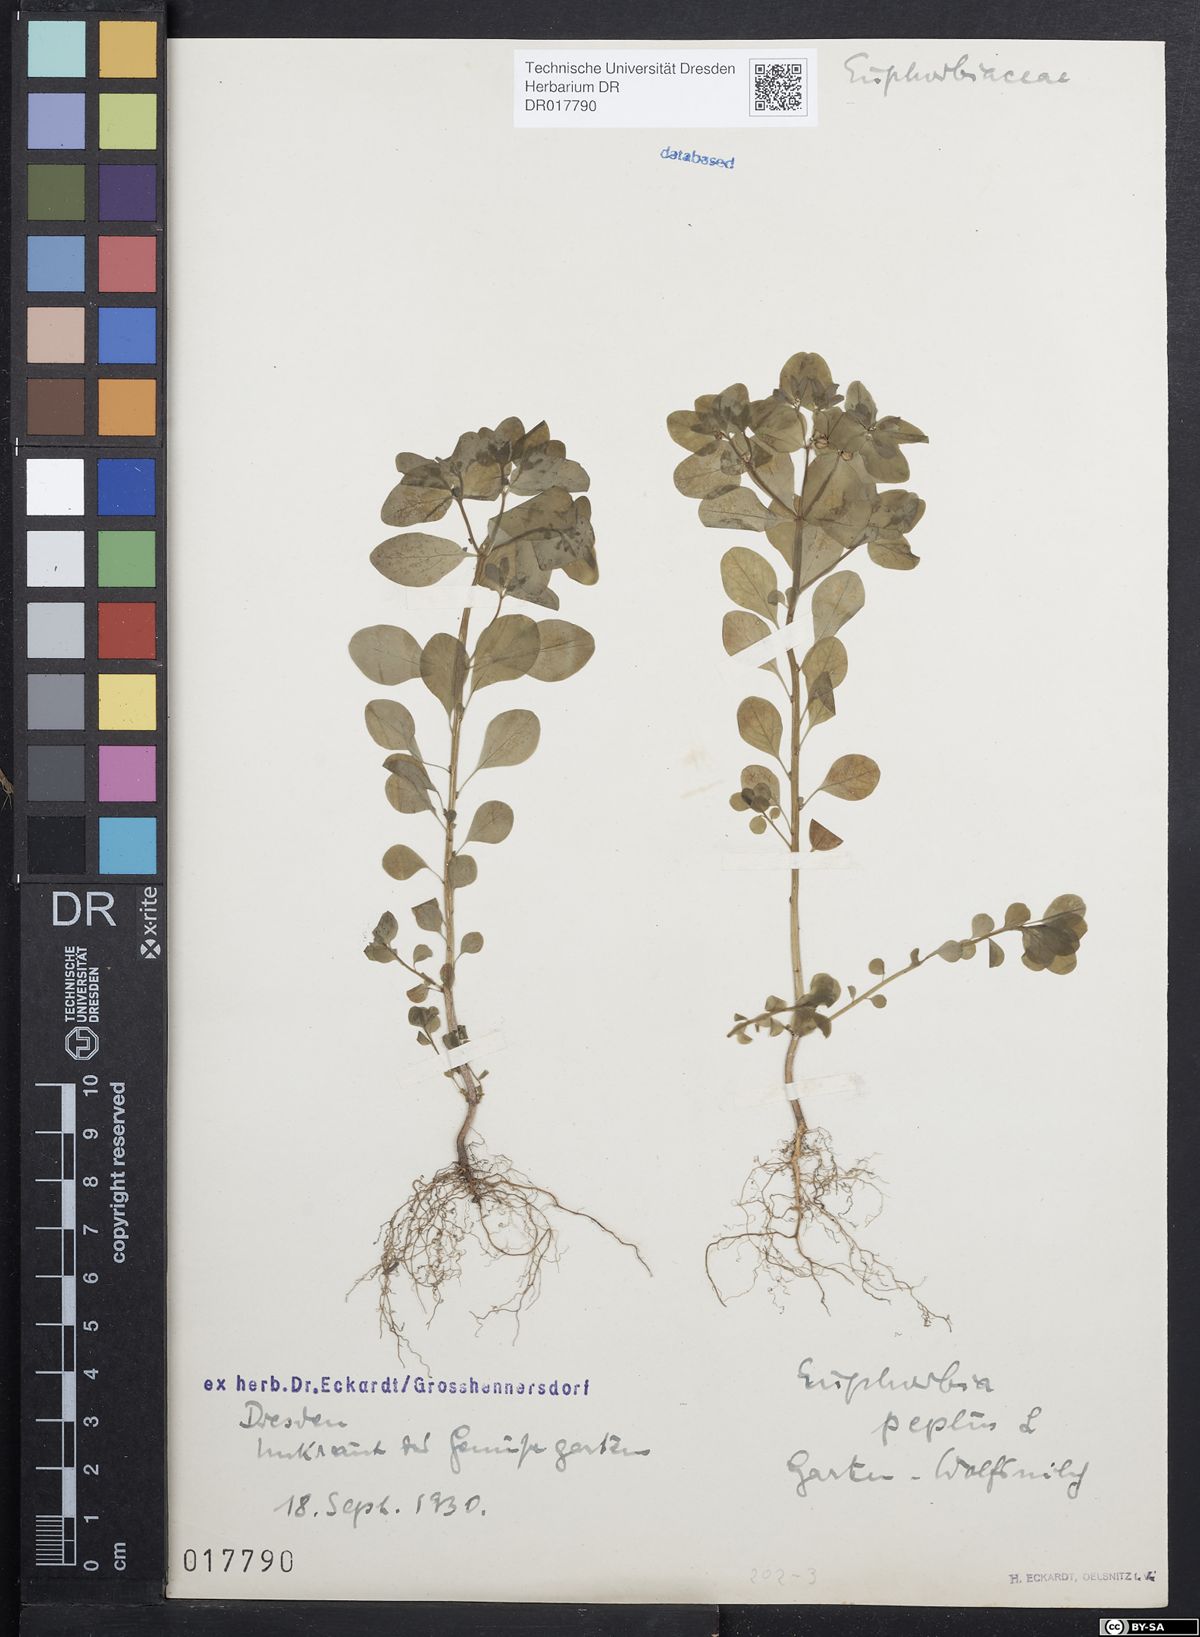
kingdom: Plantae
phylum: Tracheophyta
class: Magnoliopsida
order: Malpighiales
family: Euphorbiaceae
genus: Euphorbia
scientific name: Euphorbia peplus
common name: Petty spurge
